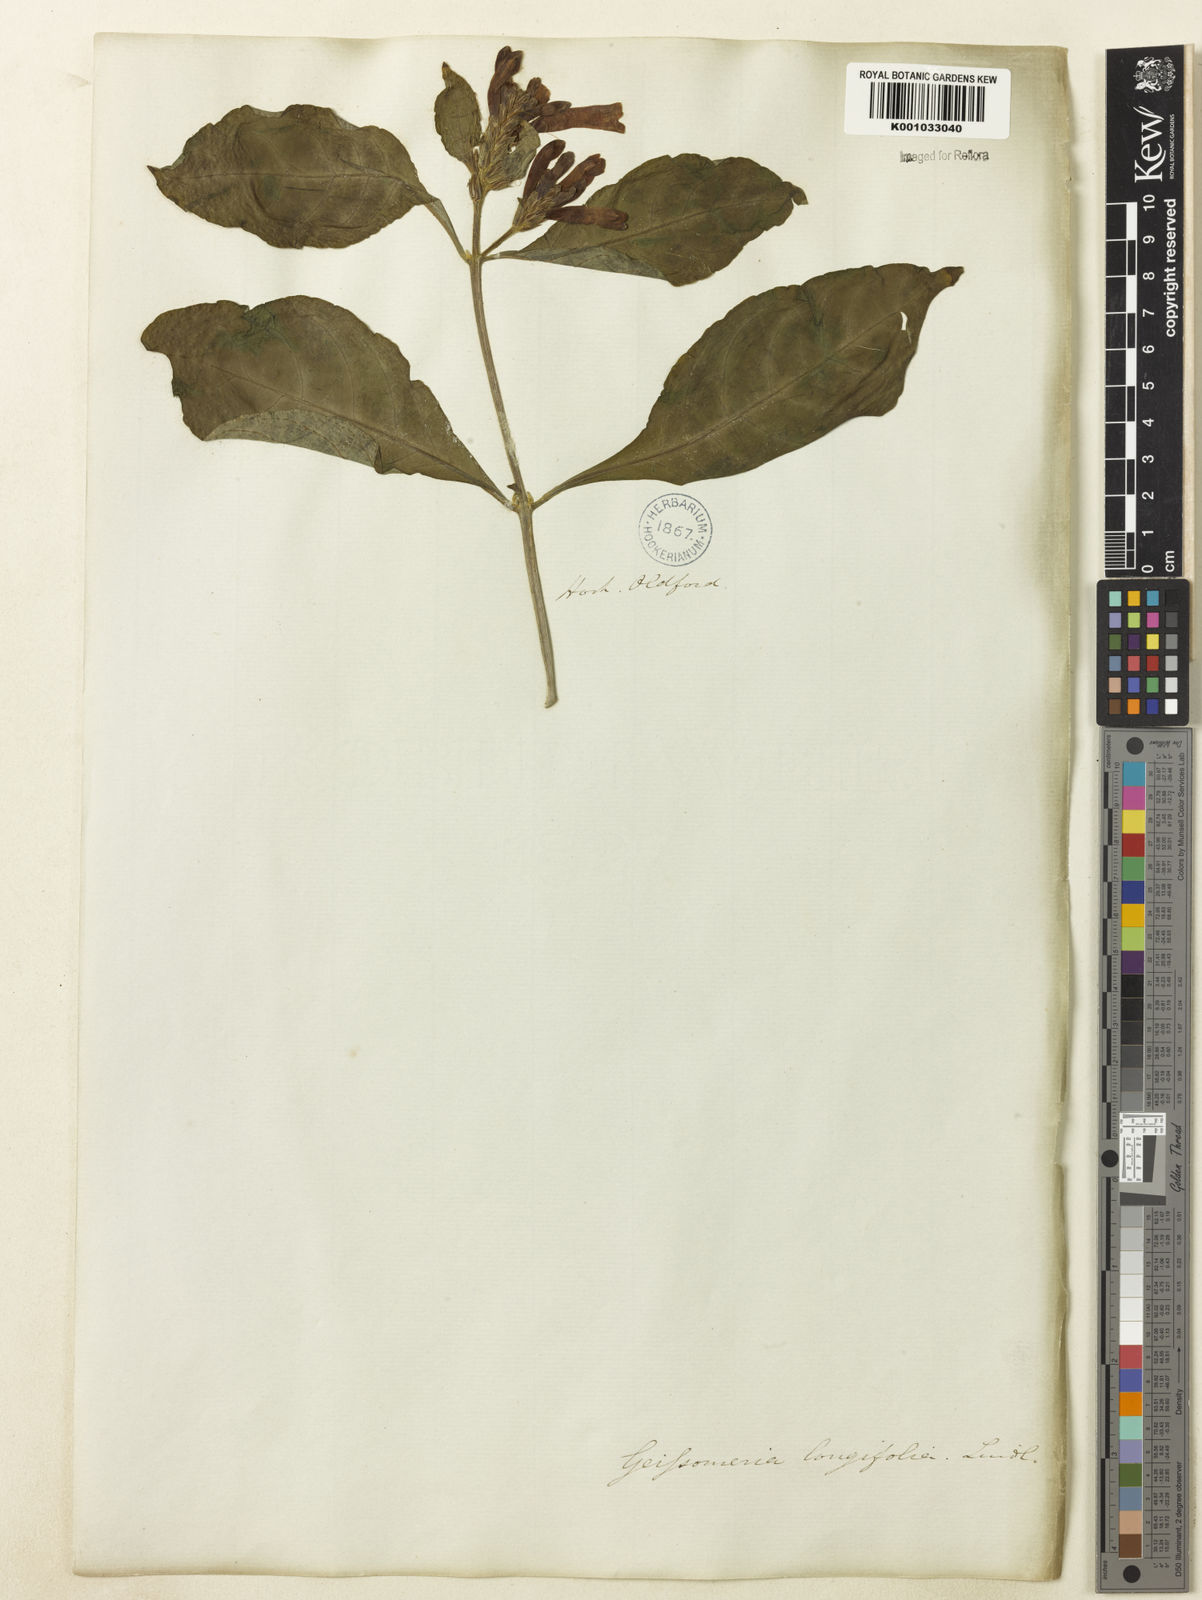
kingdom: Plantae
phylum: Tracheophyta
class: Magnoliopsida
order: Lamiales
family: Acanthaceae
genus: Aphelandra
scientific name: Aphelandra longiflora
